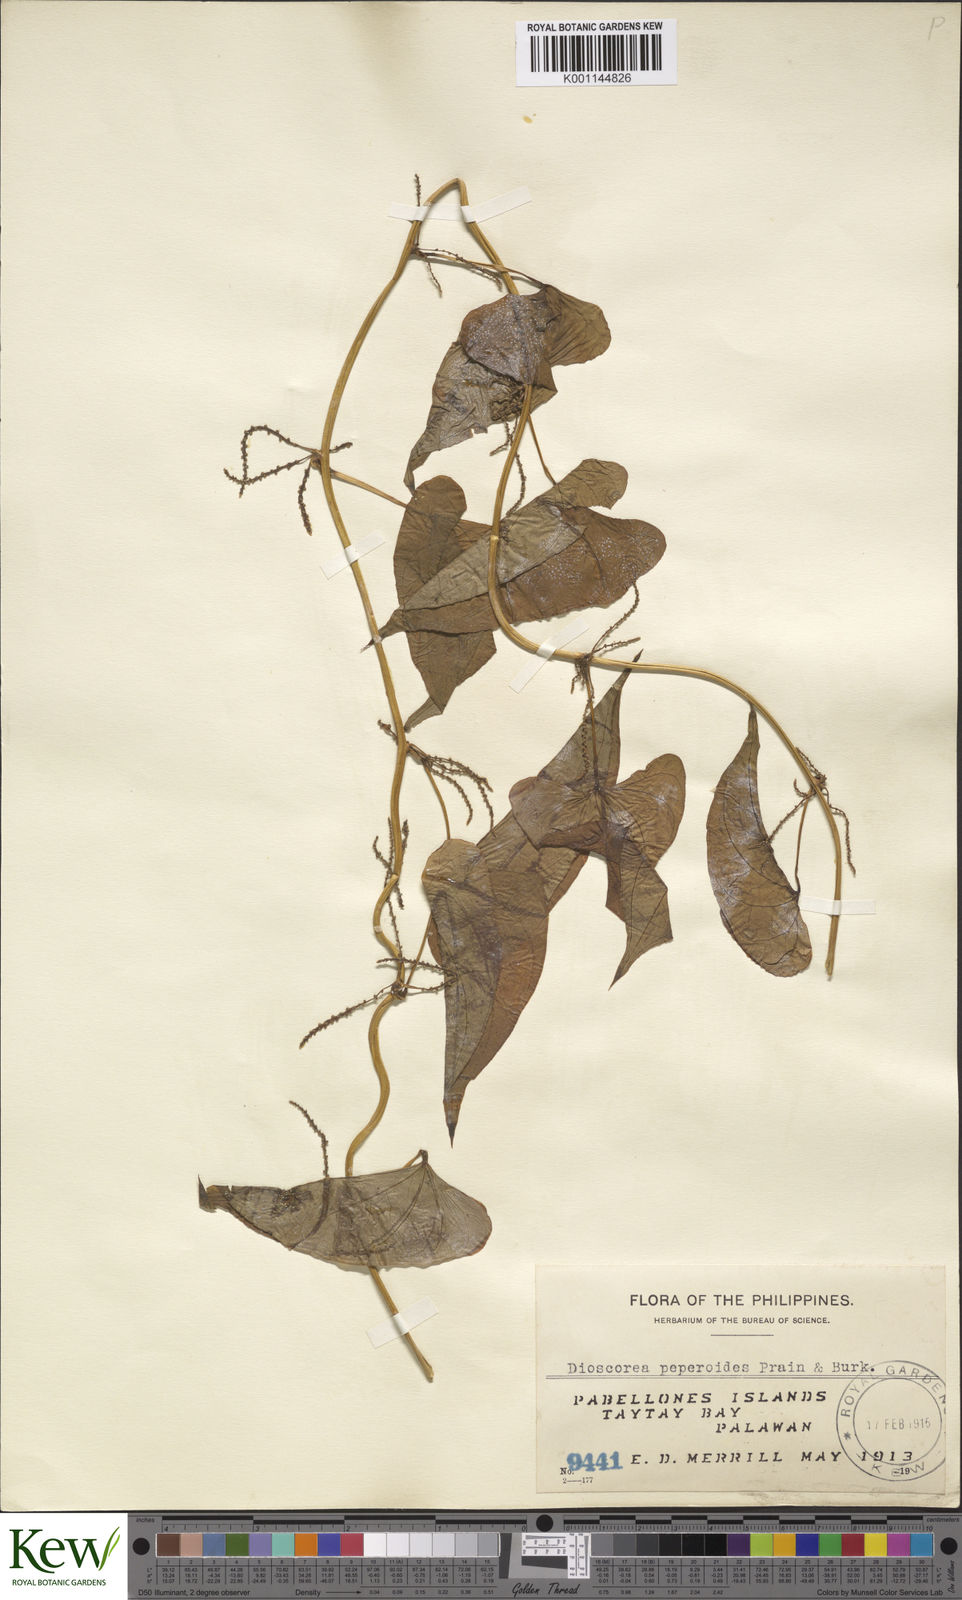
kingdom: Plantae
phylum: Tracheophyta
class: Liliopsida
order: Dioscoreales
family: Dioscoreaceae
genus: Dioscorea
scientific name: Dioscorea peperoides
